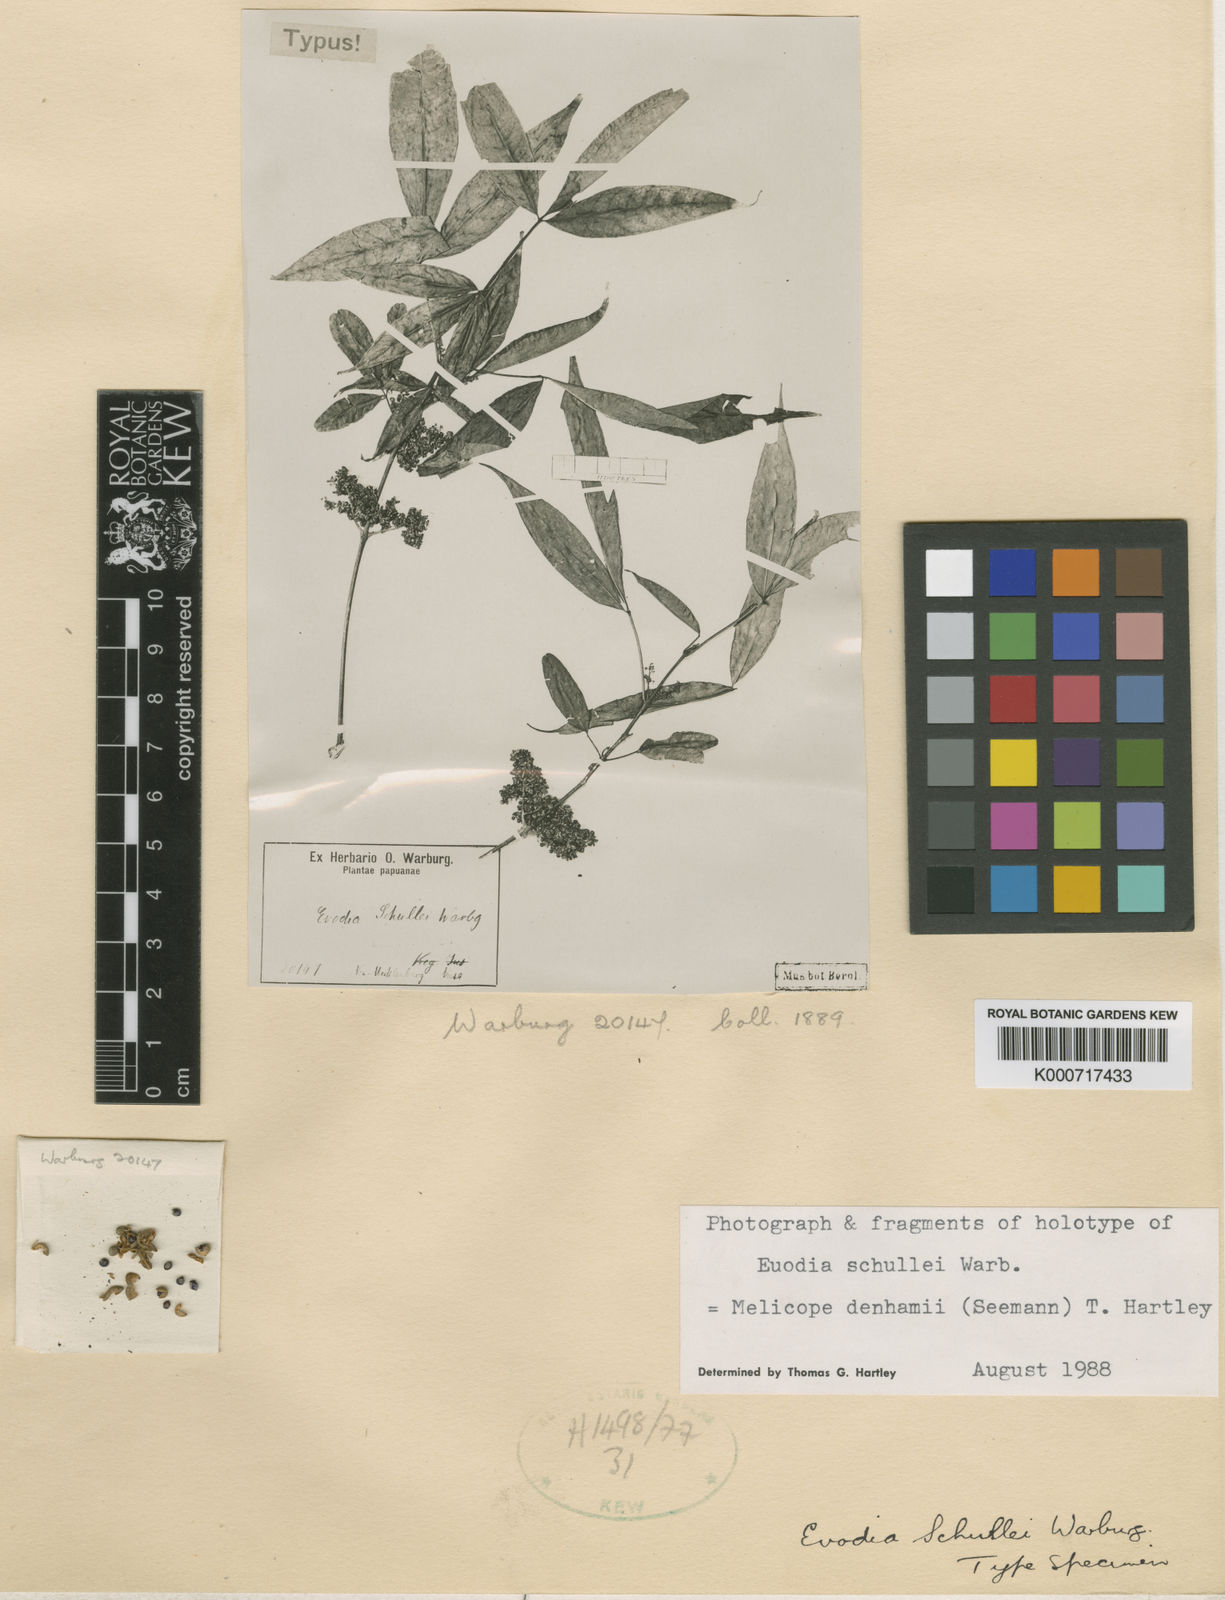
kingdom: Plantae
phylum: Tracheophyta
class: Magnoliopsida
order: Sapindales
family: Rutaceae
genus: Melicope
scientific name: Melicope denhamii
